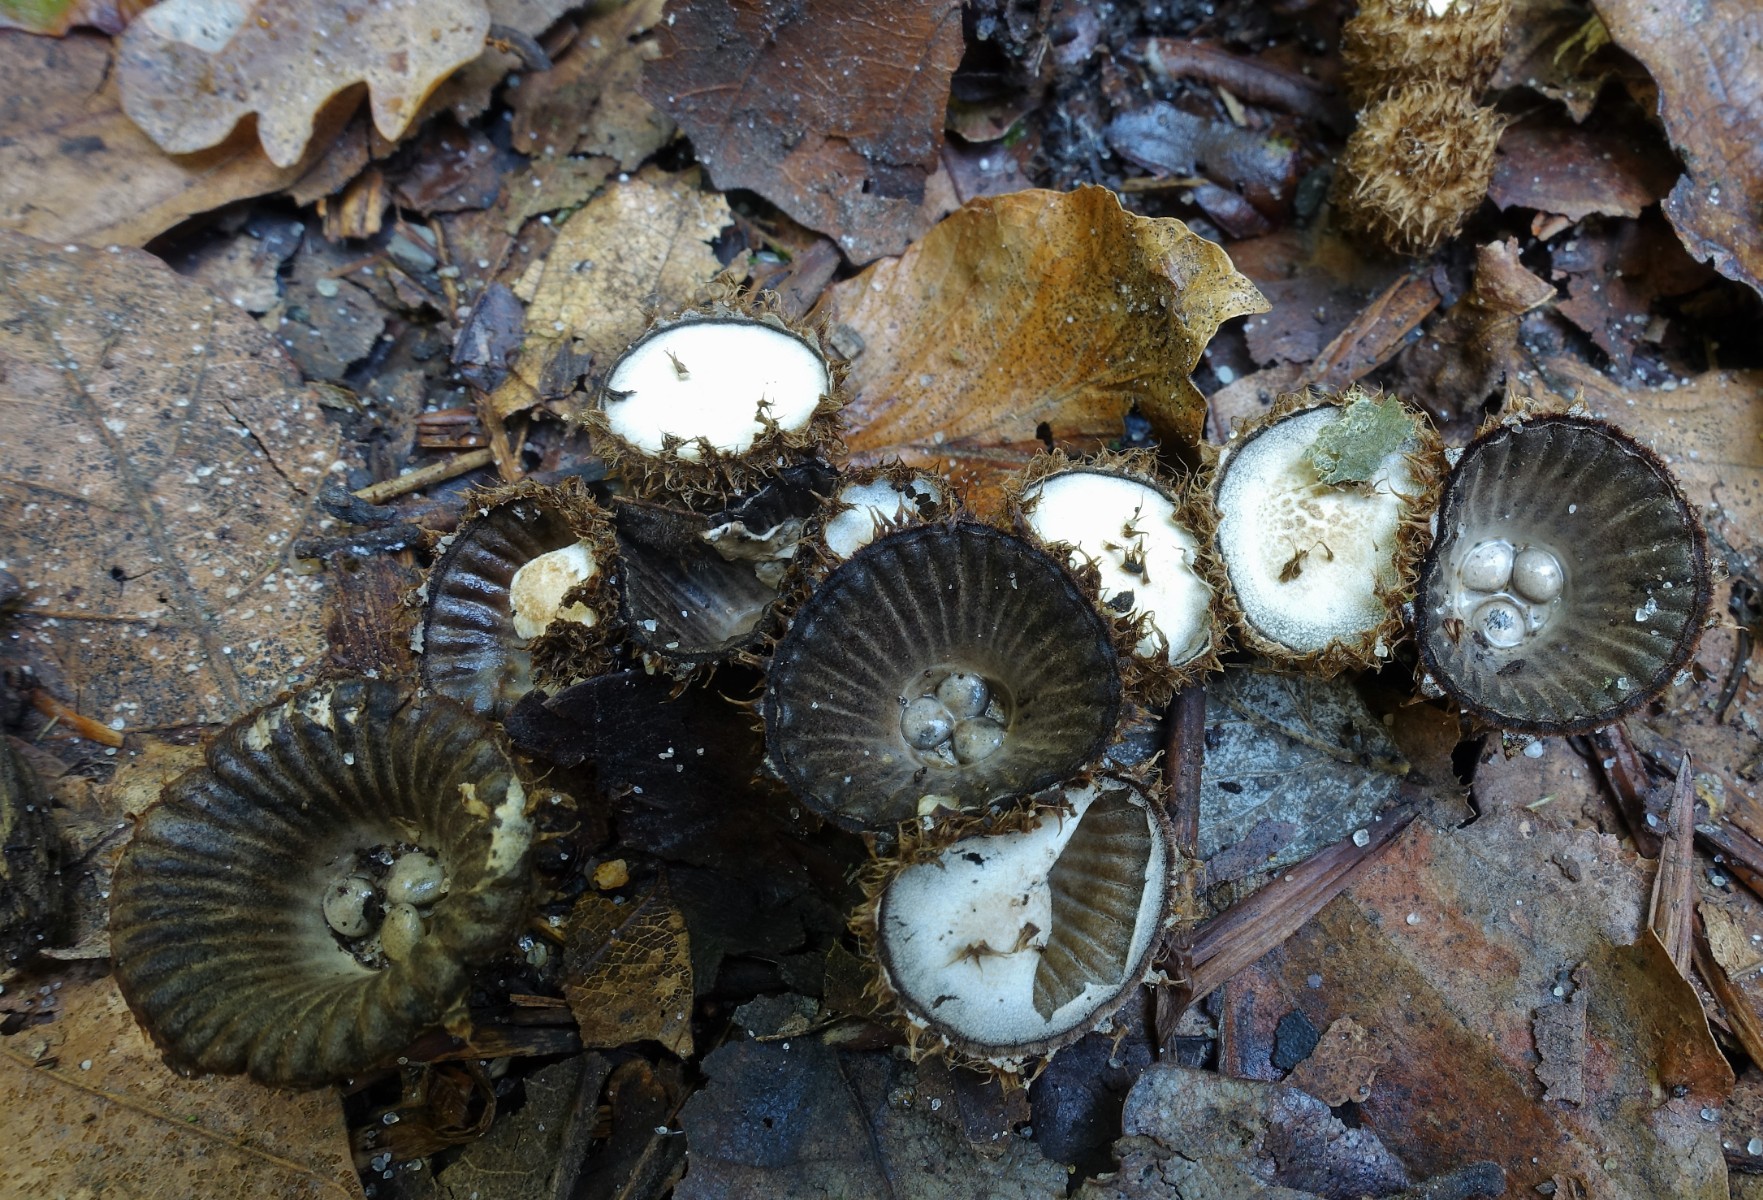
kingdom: Fungi
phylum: Basidiomycota
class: Agaricomycetes
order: Agaricales
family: Agaricaceae
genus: Cyathus
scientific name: Cyathus striatus
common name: stribet redesvamp
